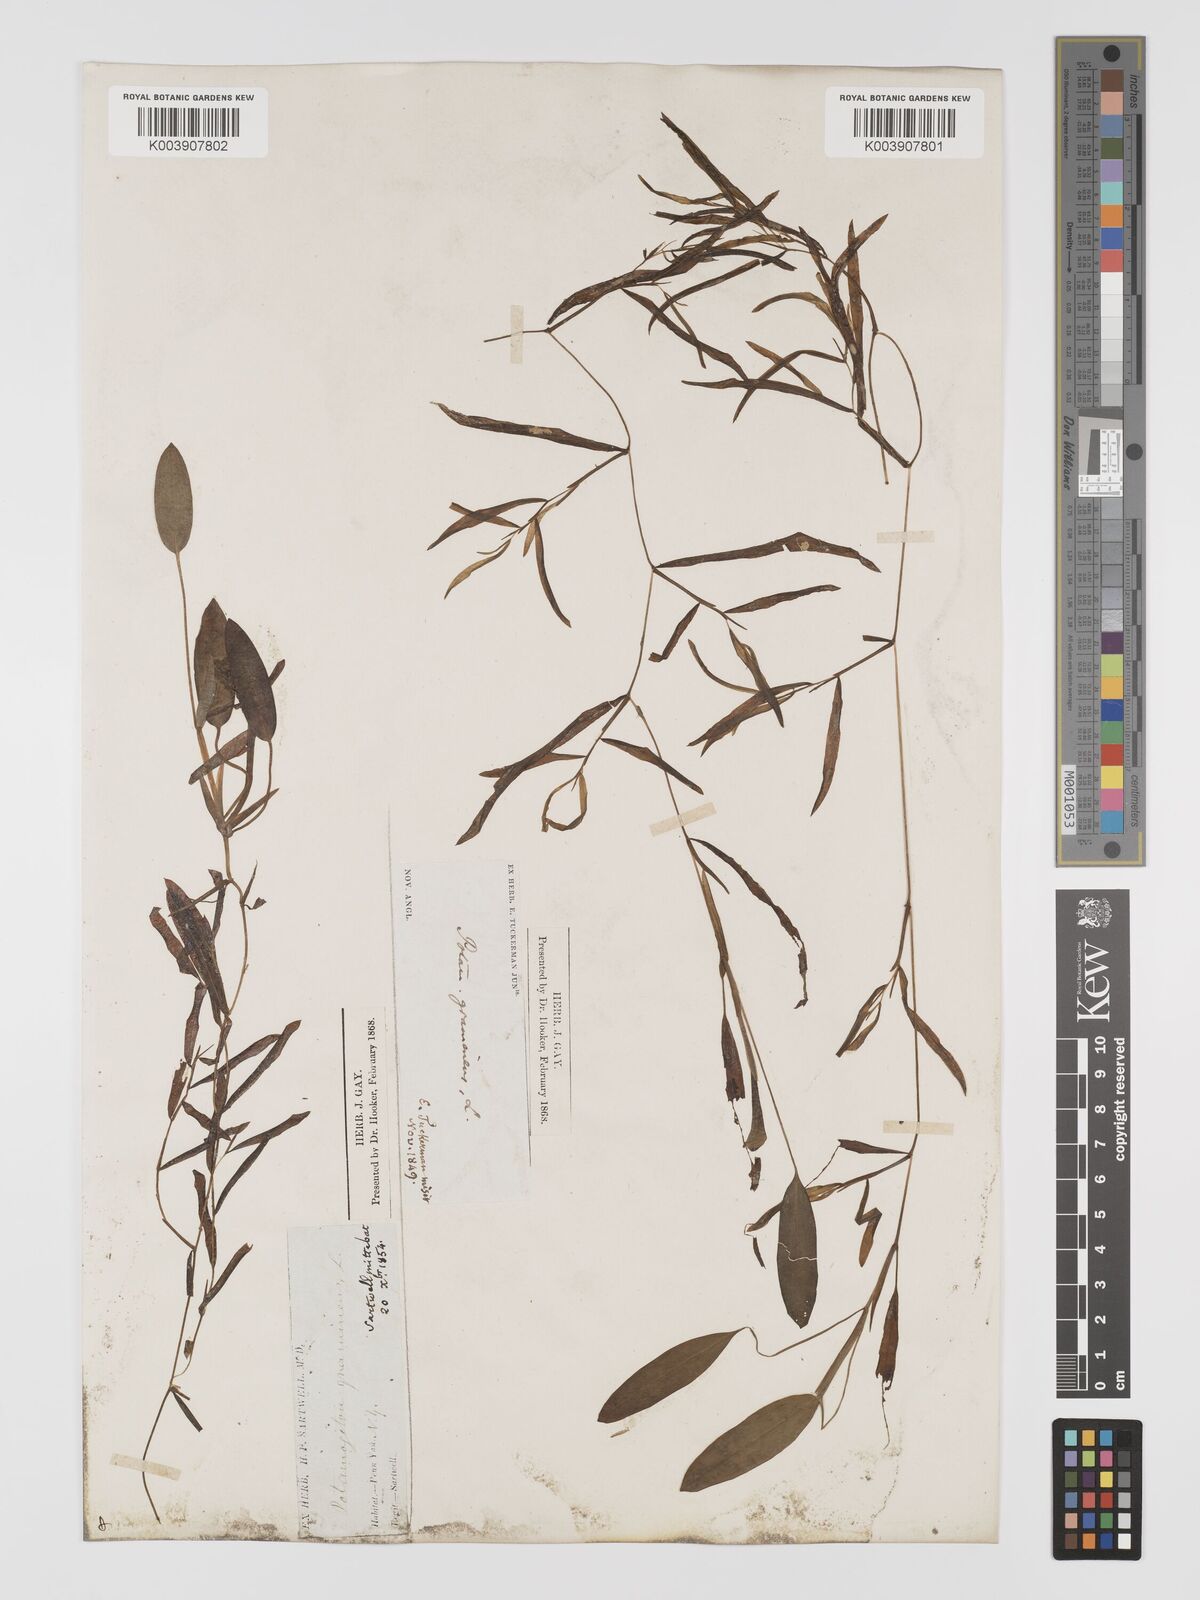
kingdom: Plantae
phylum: Tracheophyta
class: Liliopsida
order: Alismatales
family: Potamogetonaceae
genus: Potamogeton
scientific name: Potamogeton gramineus
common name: Various-leaved pondweed
